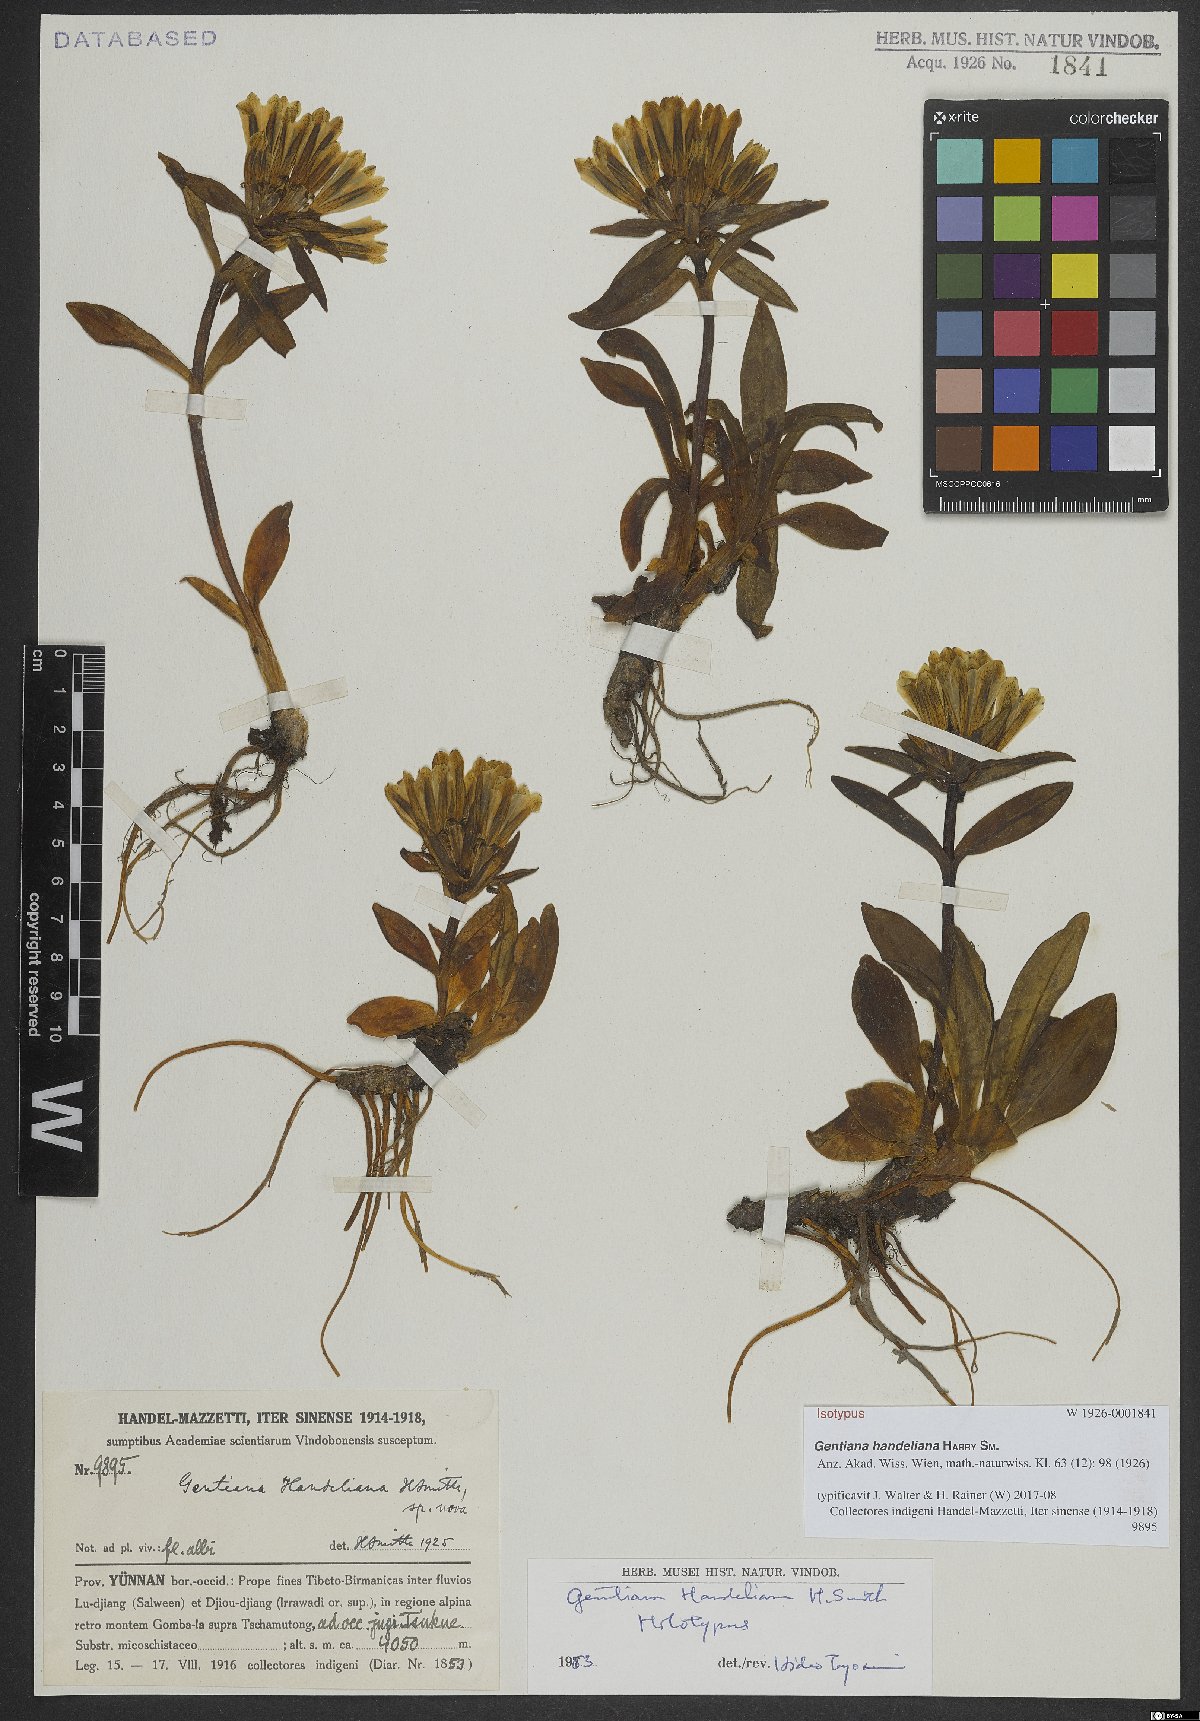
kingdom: Plantae
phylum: Tracheophyta
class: Magnoliopsida
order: Gentianales
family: Gentianaceae
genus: Gentiana
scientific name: Gentiana handeliana
